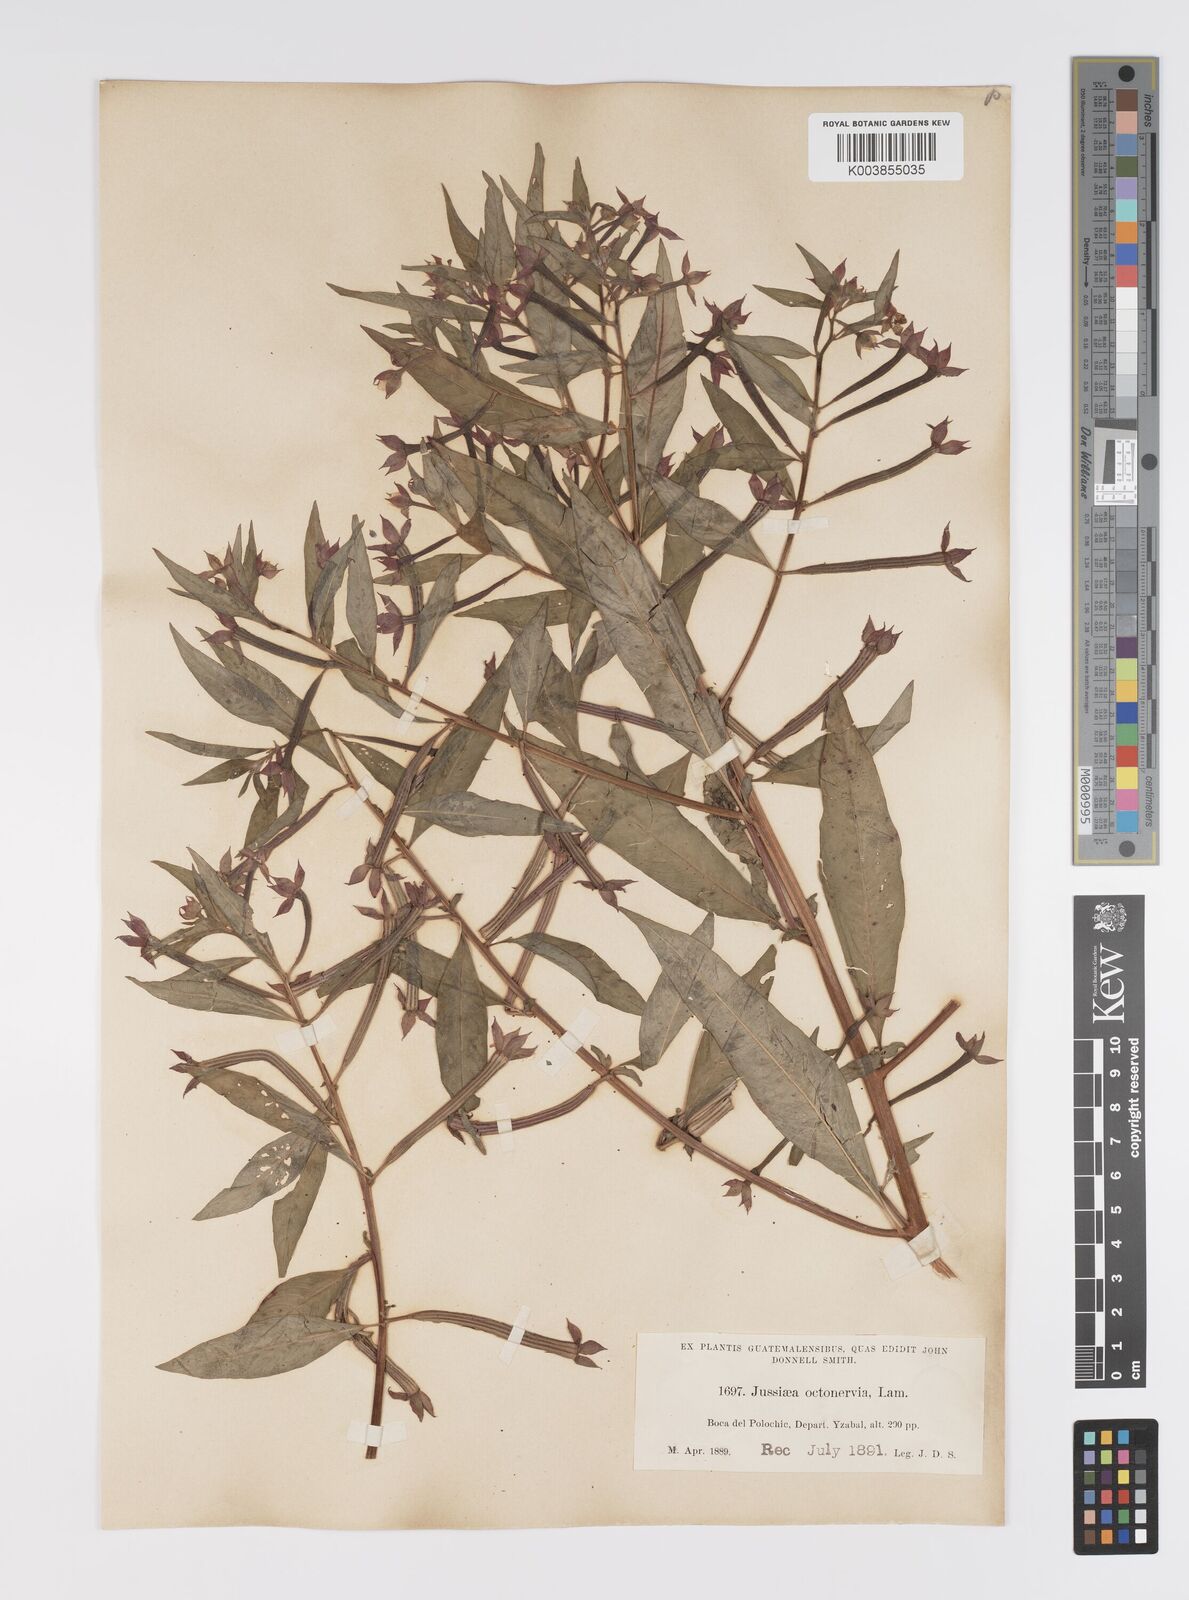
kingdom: Plantae
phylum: Tracheophyta
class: Magnoliopsida
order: Myrtales
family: Onagraceae
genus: Ludwigia
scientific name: Ludwigia octovalvis
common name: Water-primrose
